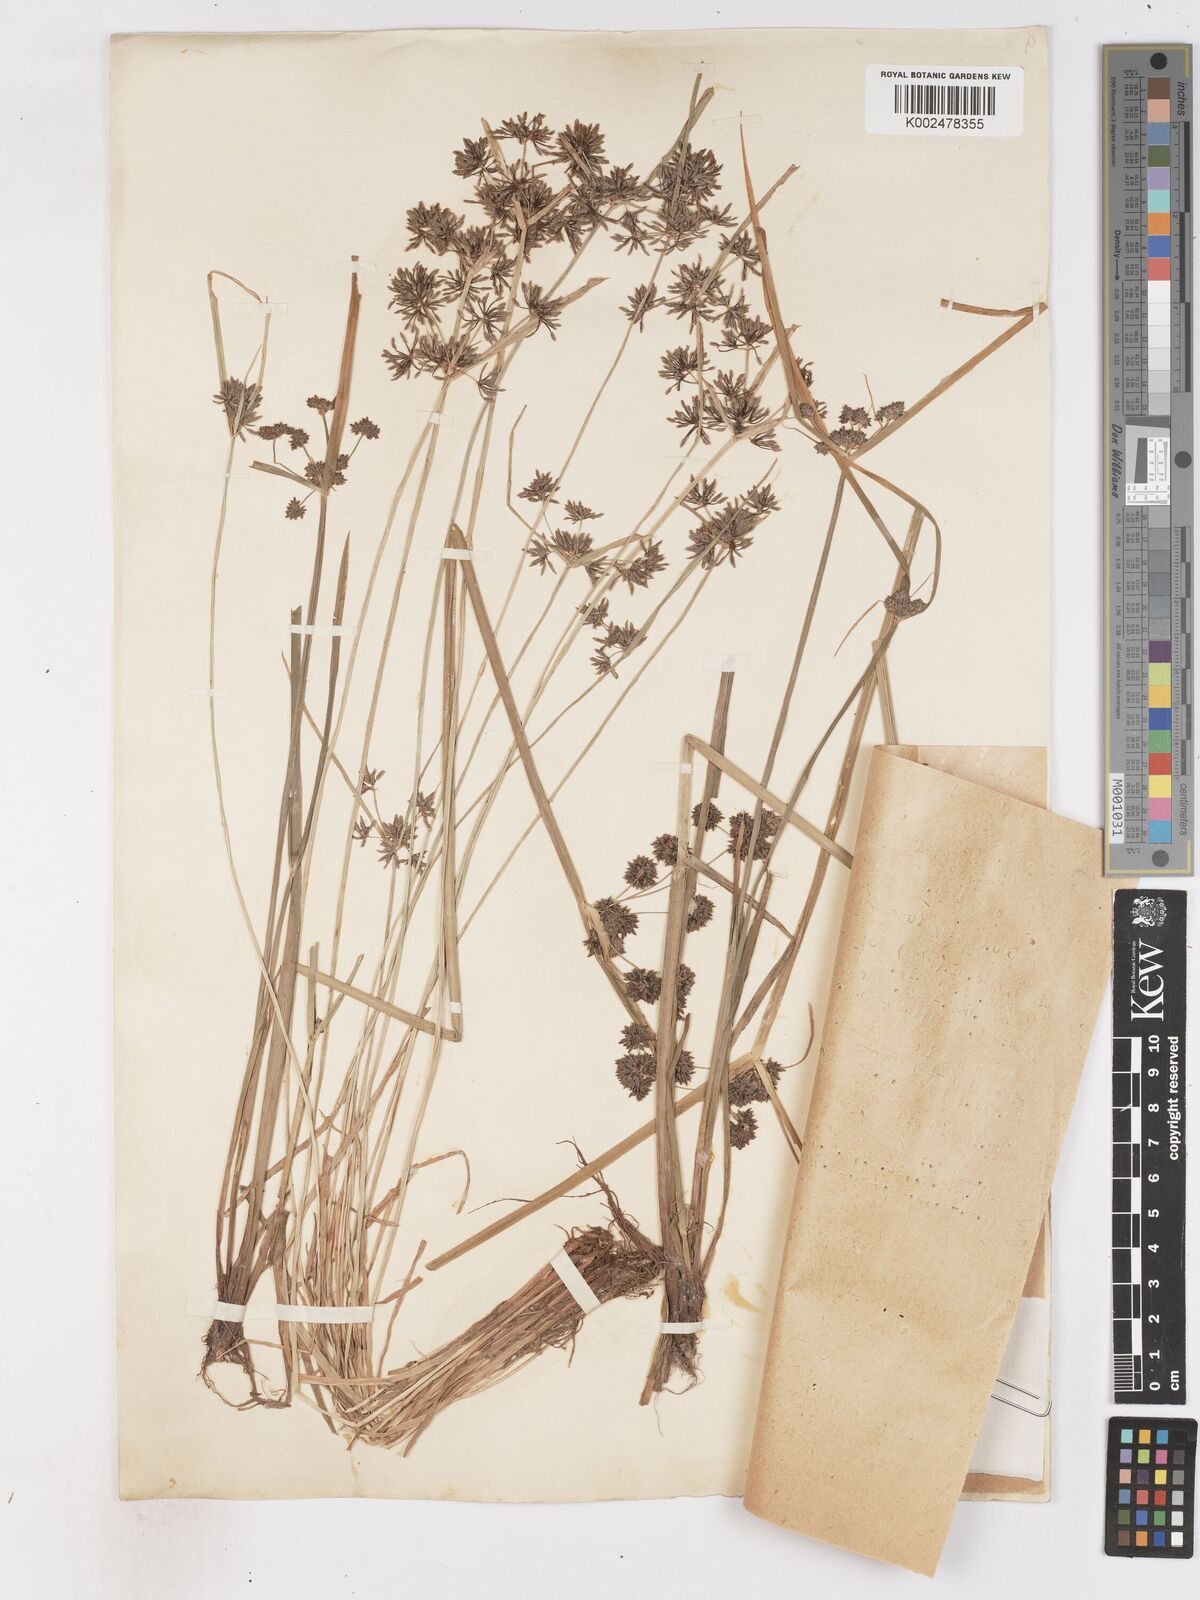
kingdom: Plantae
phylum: Tracheophyta
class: Liliopsida
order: Poales
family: Cyperaceae
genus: Cyperus
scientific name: Cyperus fuscus
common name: Brown galingale
